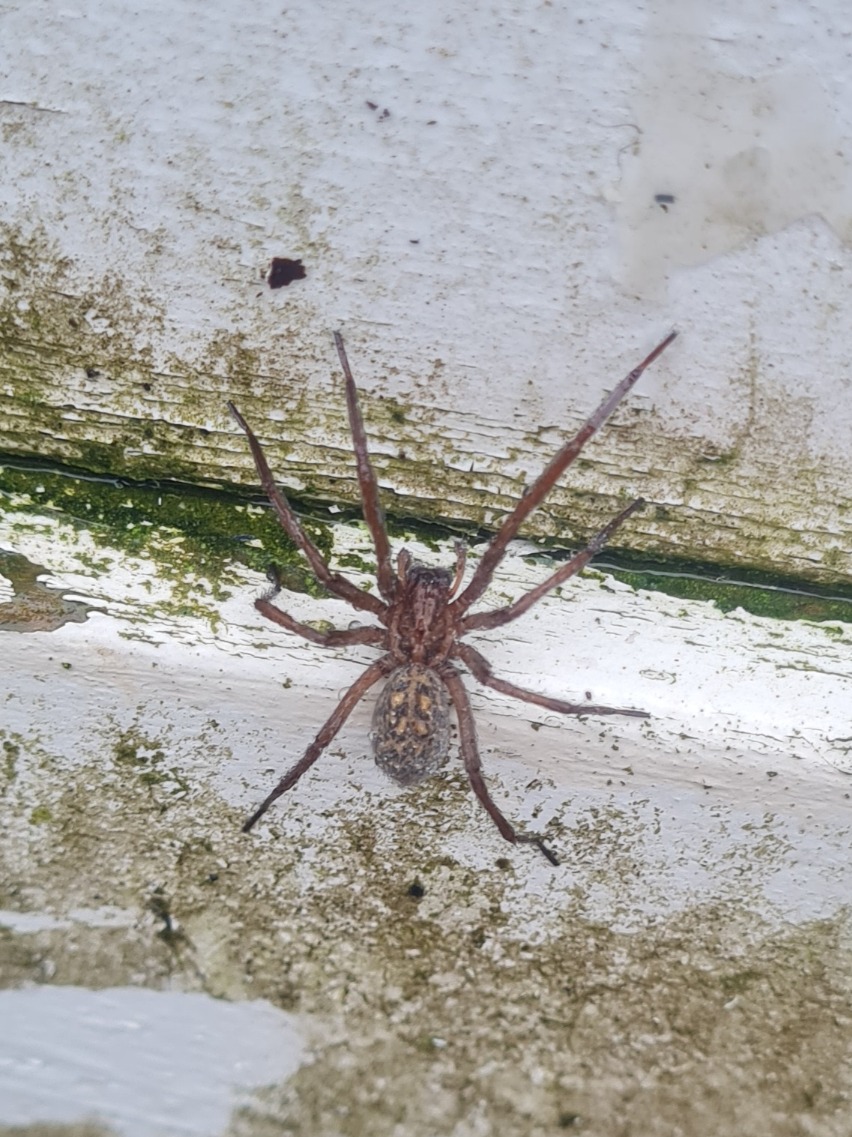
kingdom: Animalia
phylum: Arthropoda
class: Arachnida
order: Araneae
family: Agelenidae
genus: Eratigena
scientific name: Eratigena atrica
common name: Stor husedderkop
